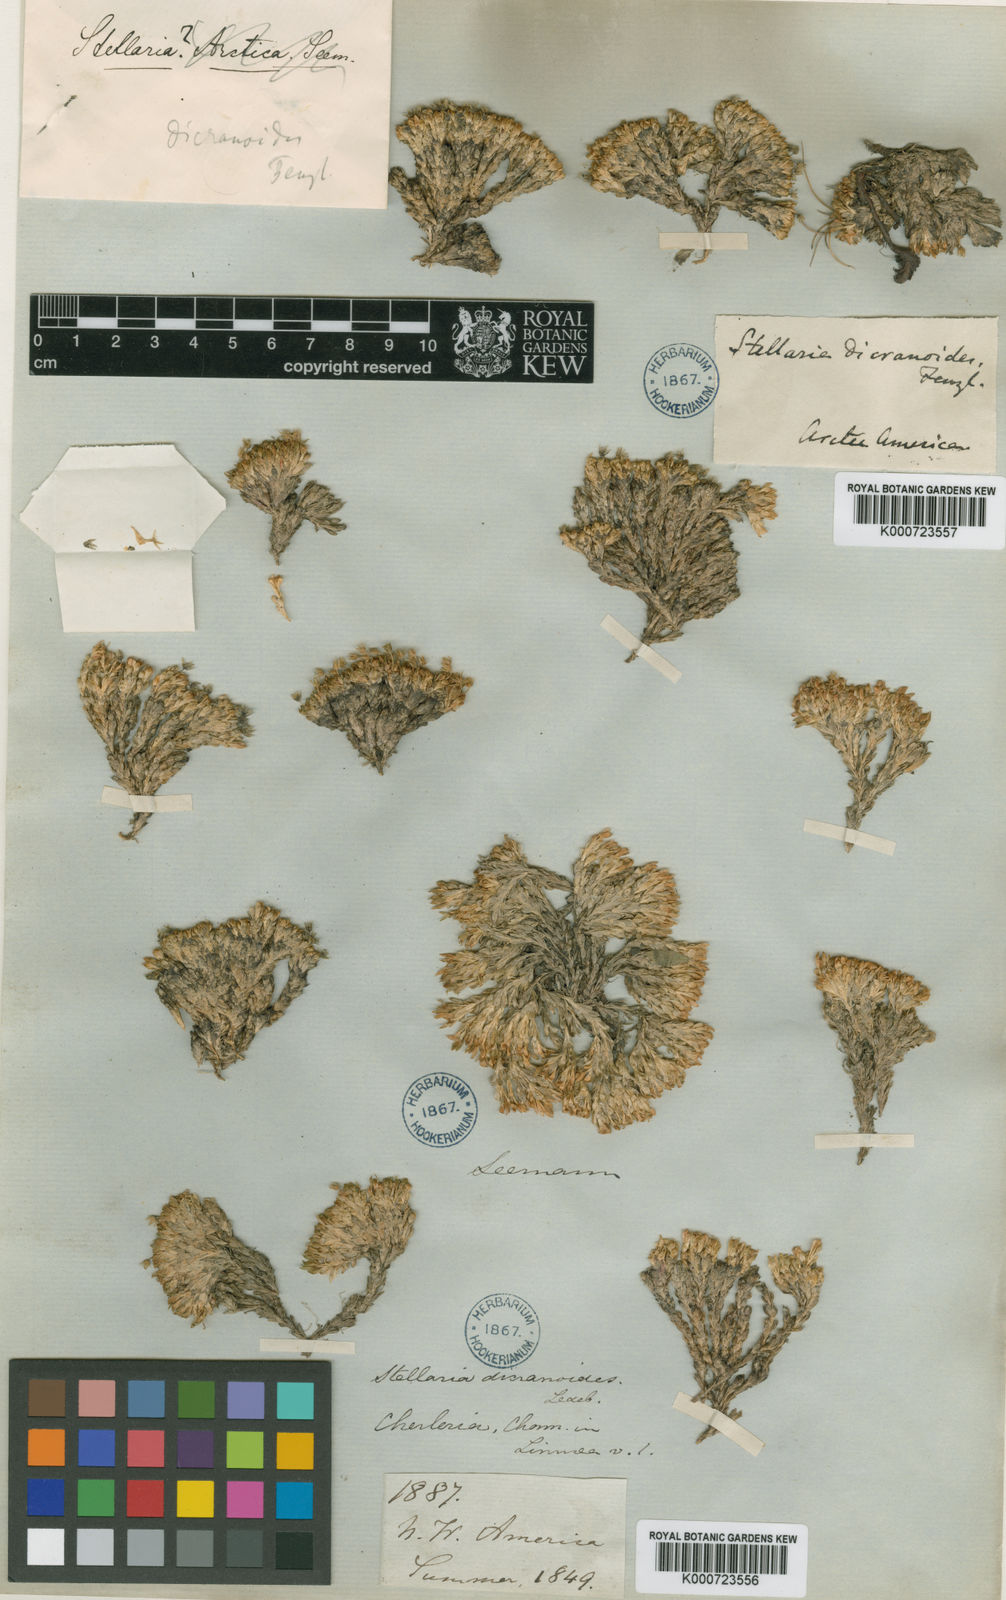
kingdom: Plantae
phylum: Tracheophyta
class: Magnoliopsida
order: Caryophyllales
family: Caryophyllaceae
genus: Stellaria
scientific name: Stellaria dicranoides
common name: Chamisso's starwort
